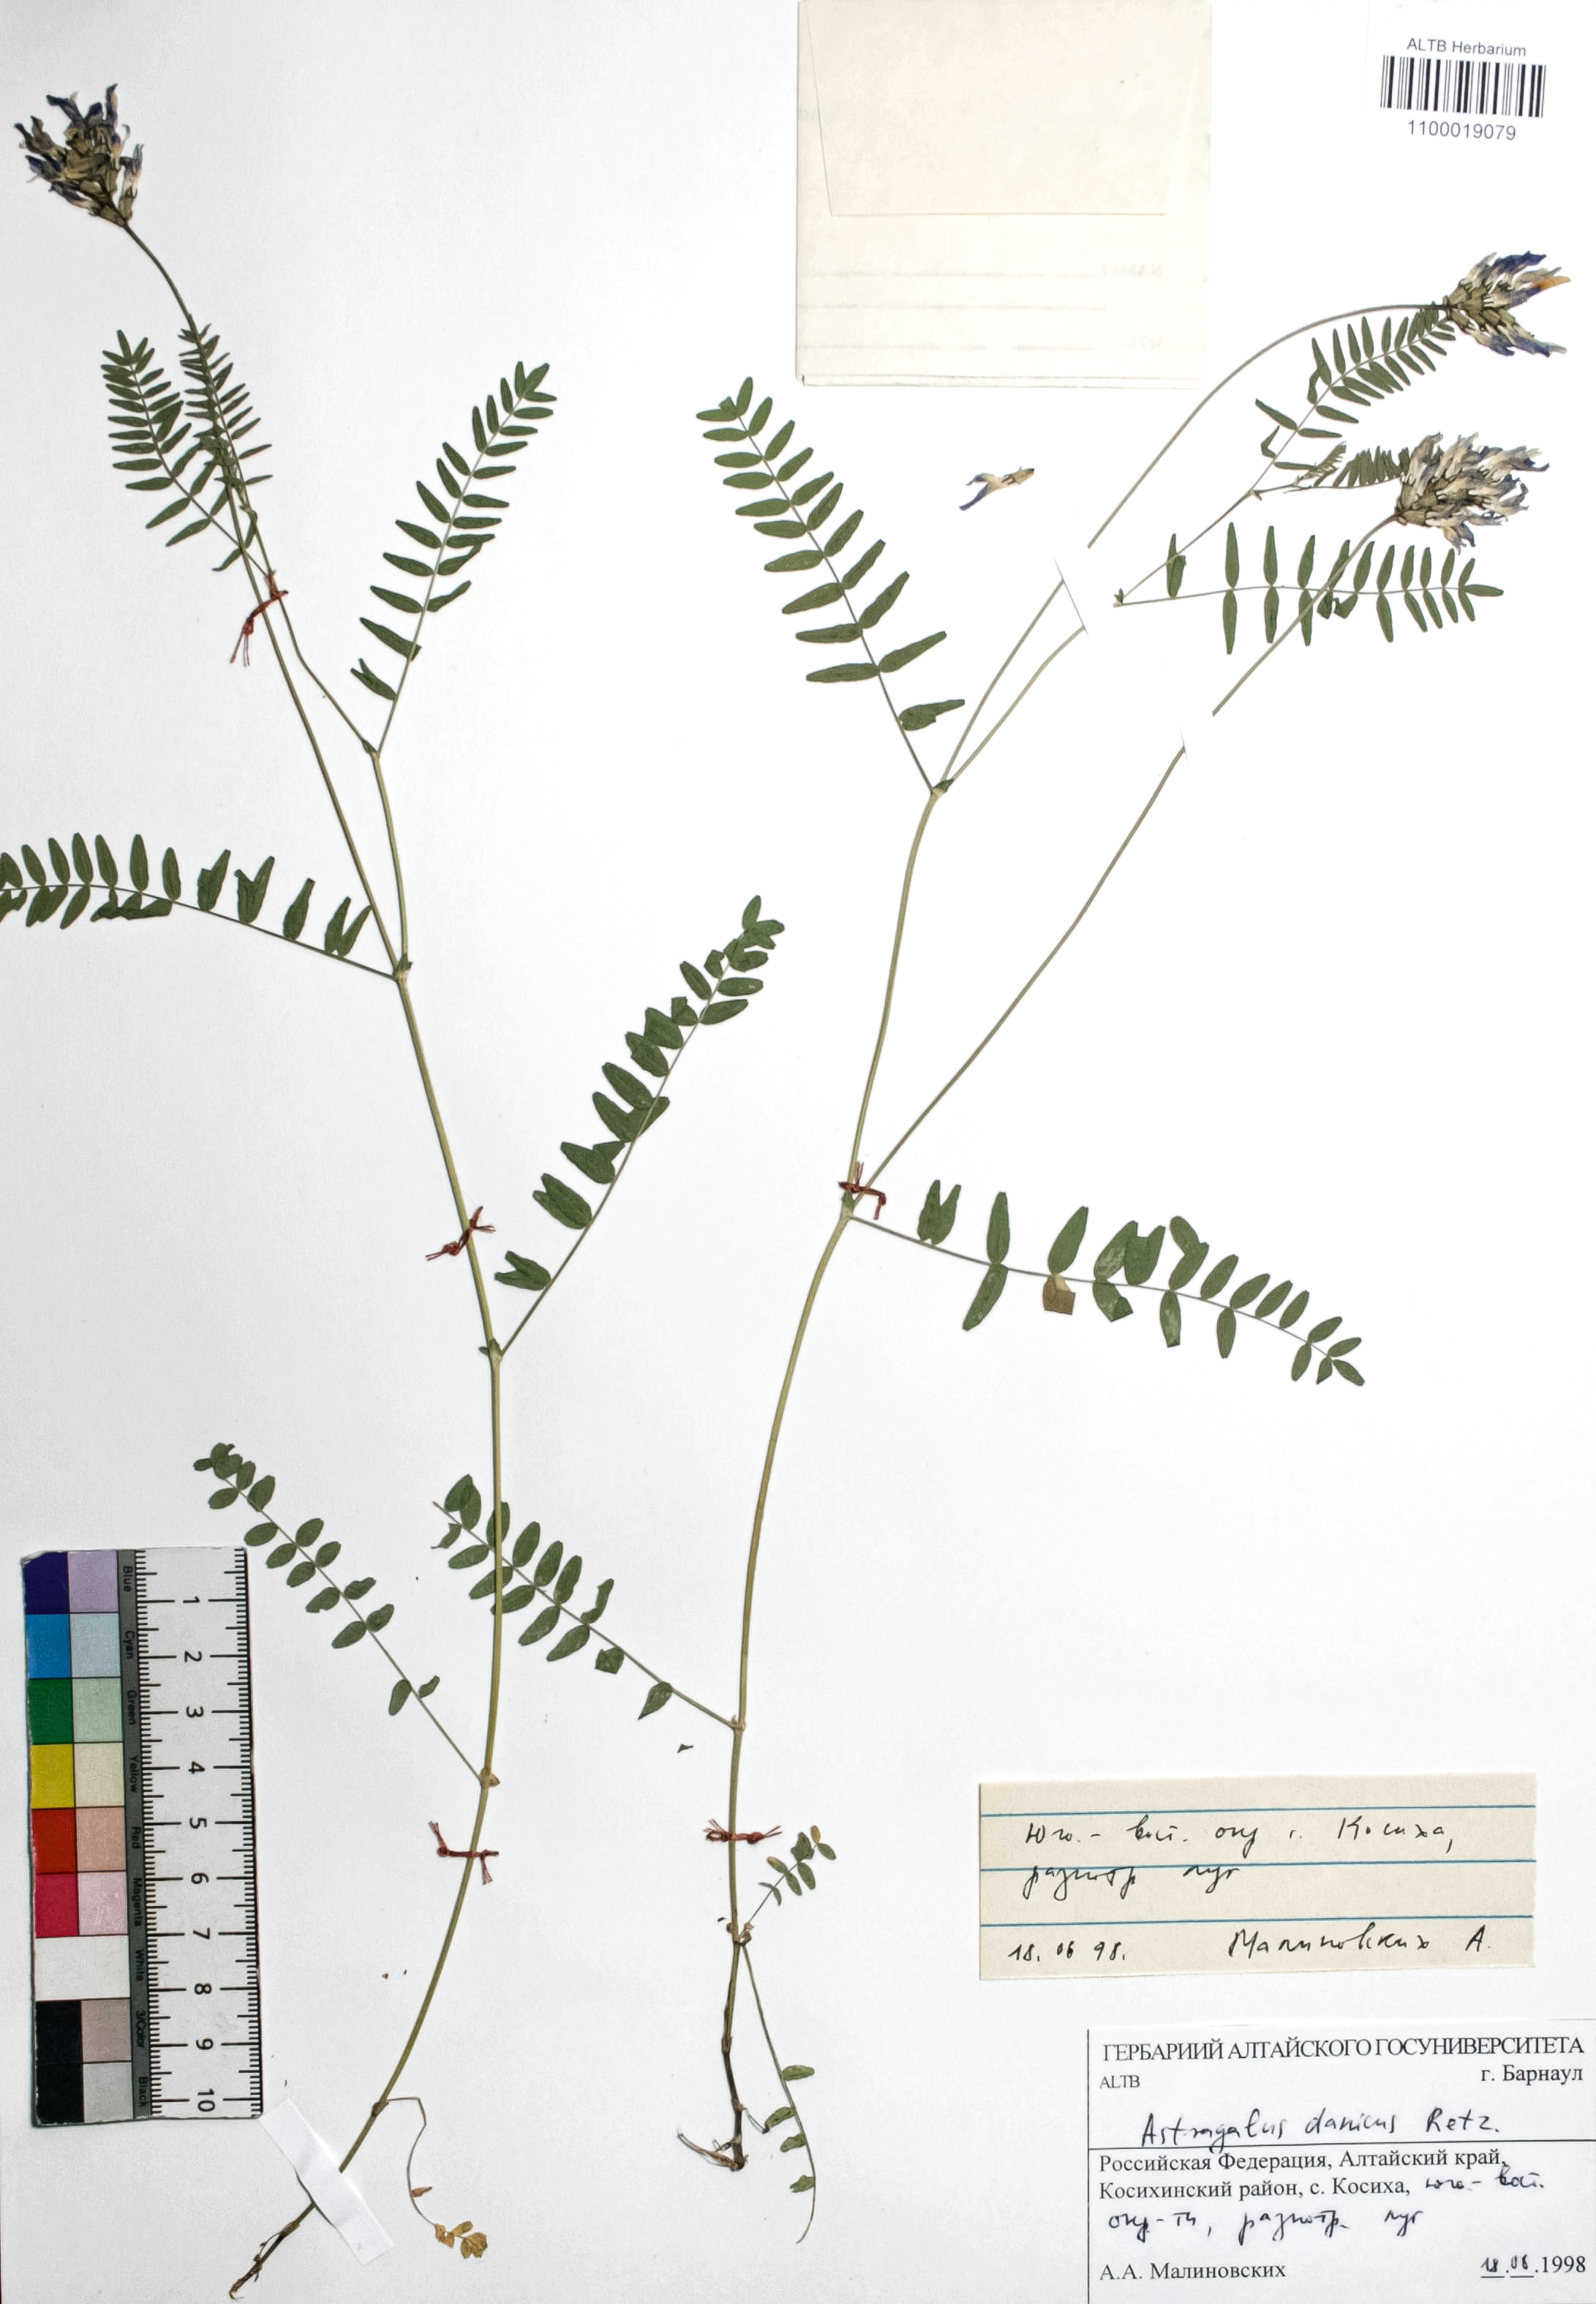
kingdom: Plantae
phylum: Tracheophyta
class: Magnoliopsida
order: Fabales
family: Fabaceae
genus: Astragalus
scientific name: Astragalus danicus
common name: Purple milk-vetch
